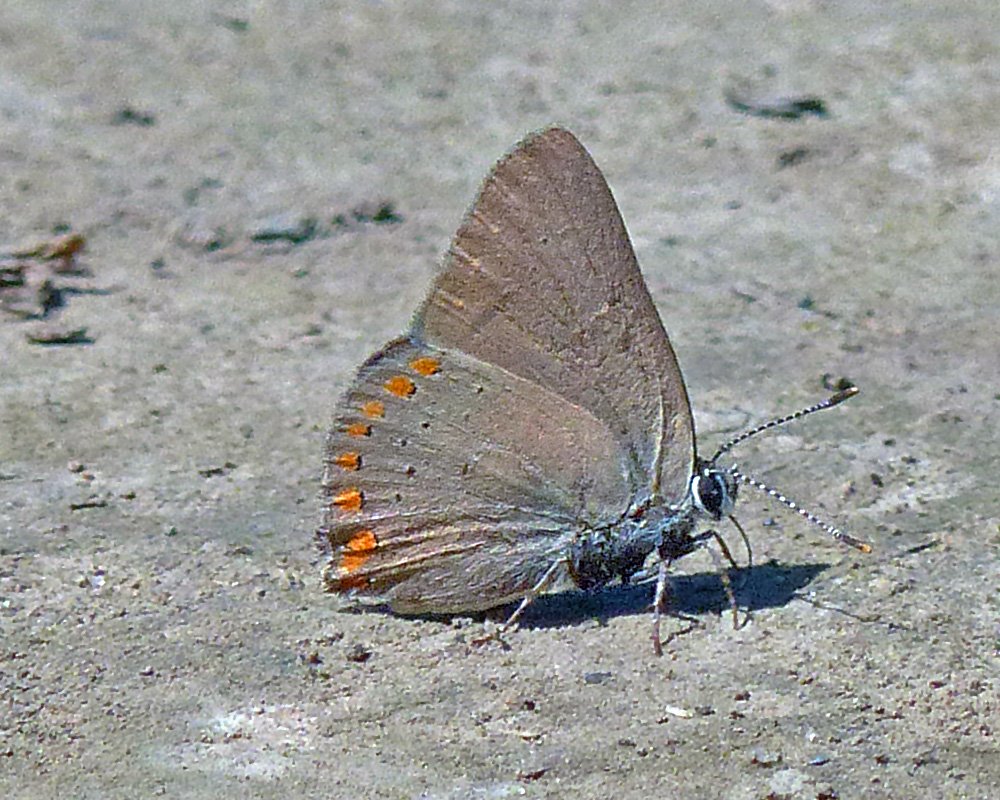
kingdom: Animalia
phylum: Arthropoda
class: Insecta
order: Lepidoptera
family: Lycaenidae
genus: Harkenclenus
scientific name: Harkenclenus titus
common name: Coral Hairstreak
